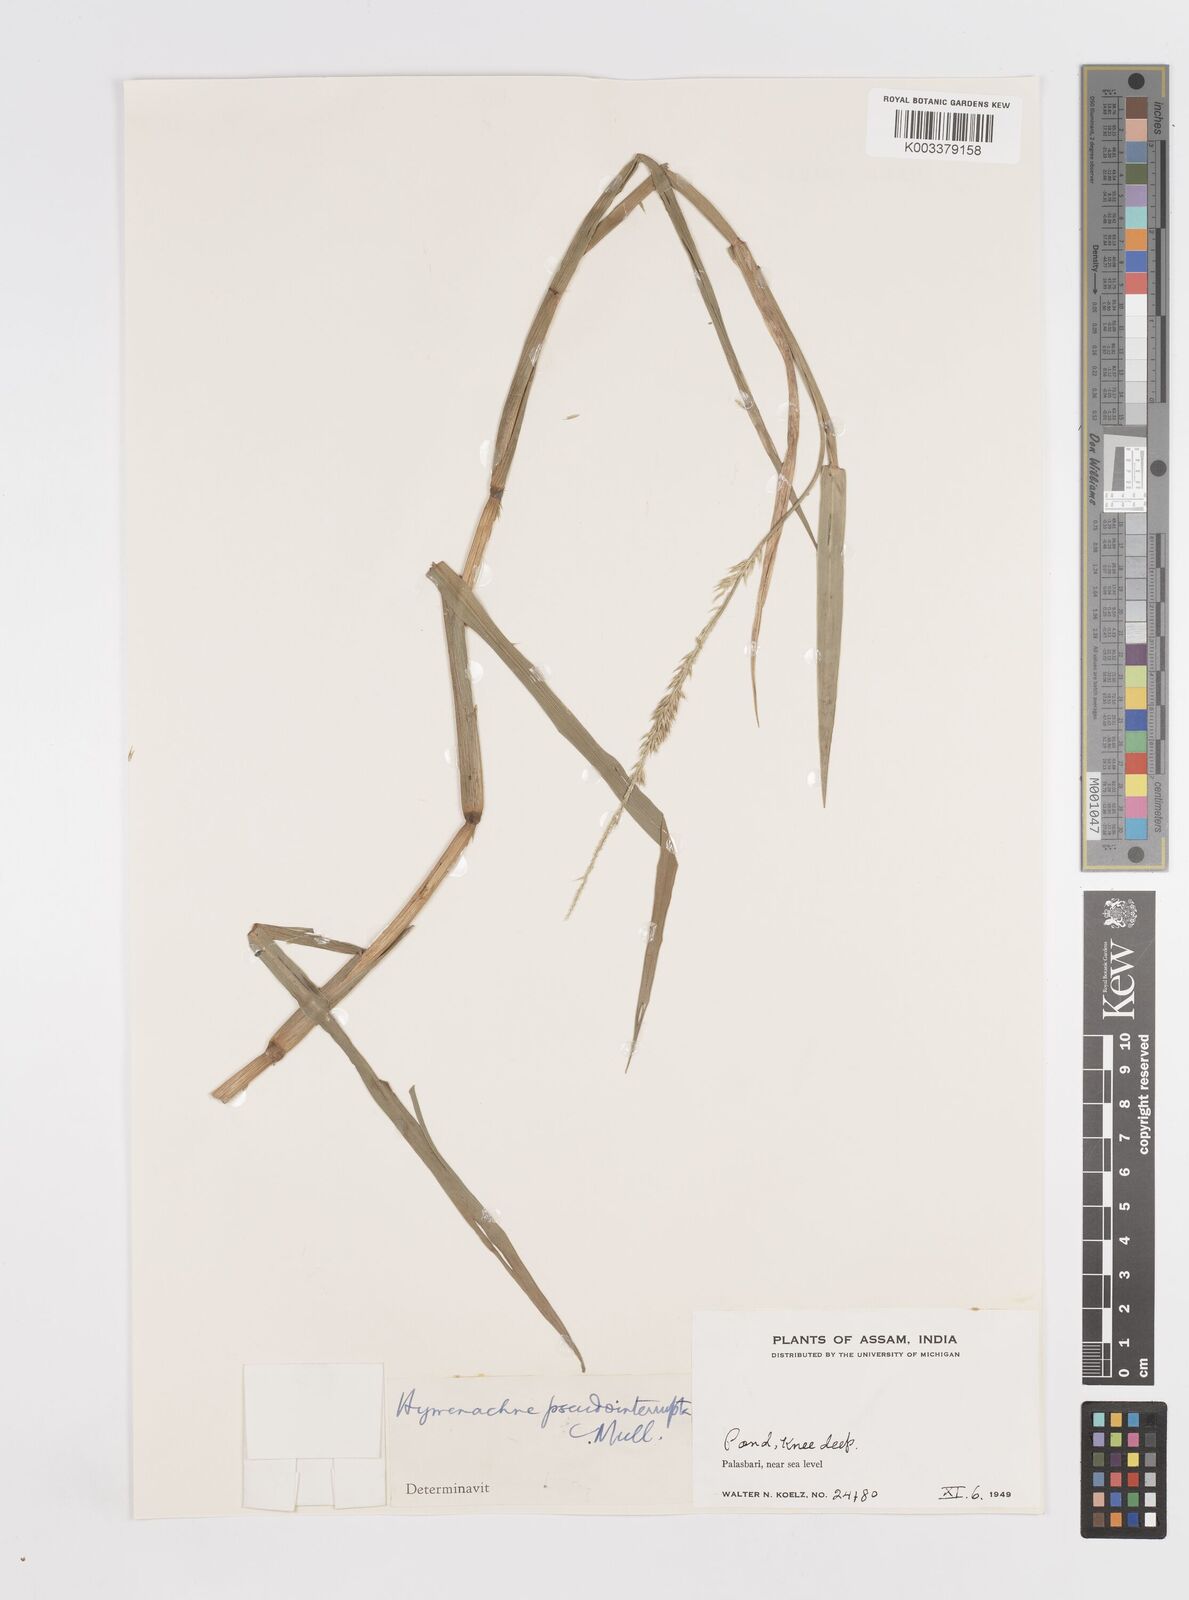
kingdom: Plantae
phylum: Tracheophyta
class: Liliopsida
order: Poales
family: Poaceae
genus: Hymenachne
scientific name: Hymenachne amplexicaulis
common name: Olive hymenachne
